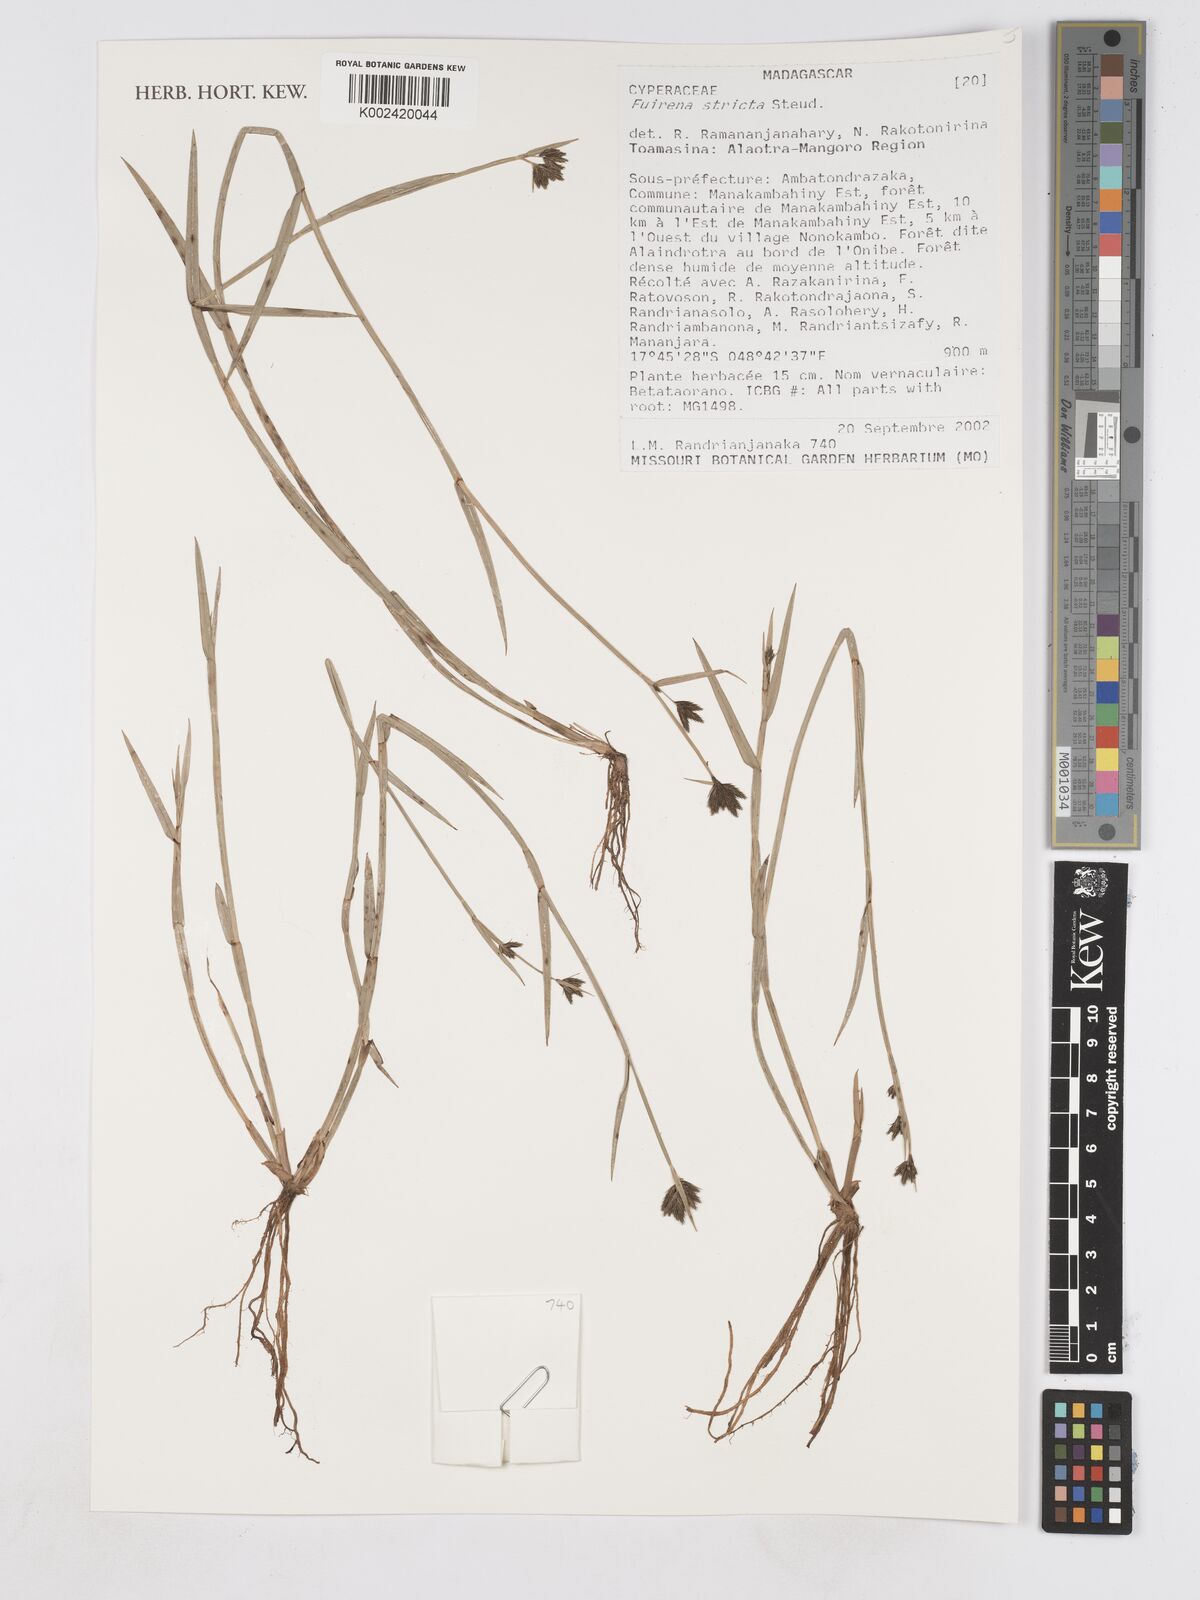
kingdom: Plantae
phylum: Tracheophyta
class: Liliopsida
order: Poales
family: Cyperaceae
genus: Fuirena
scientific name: Fuirena stricta
